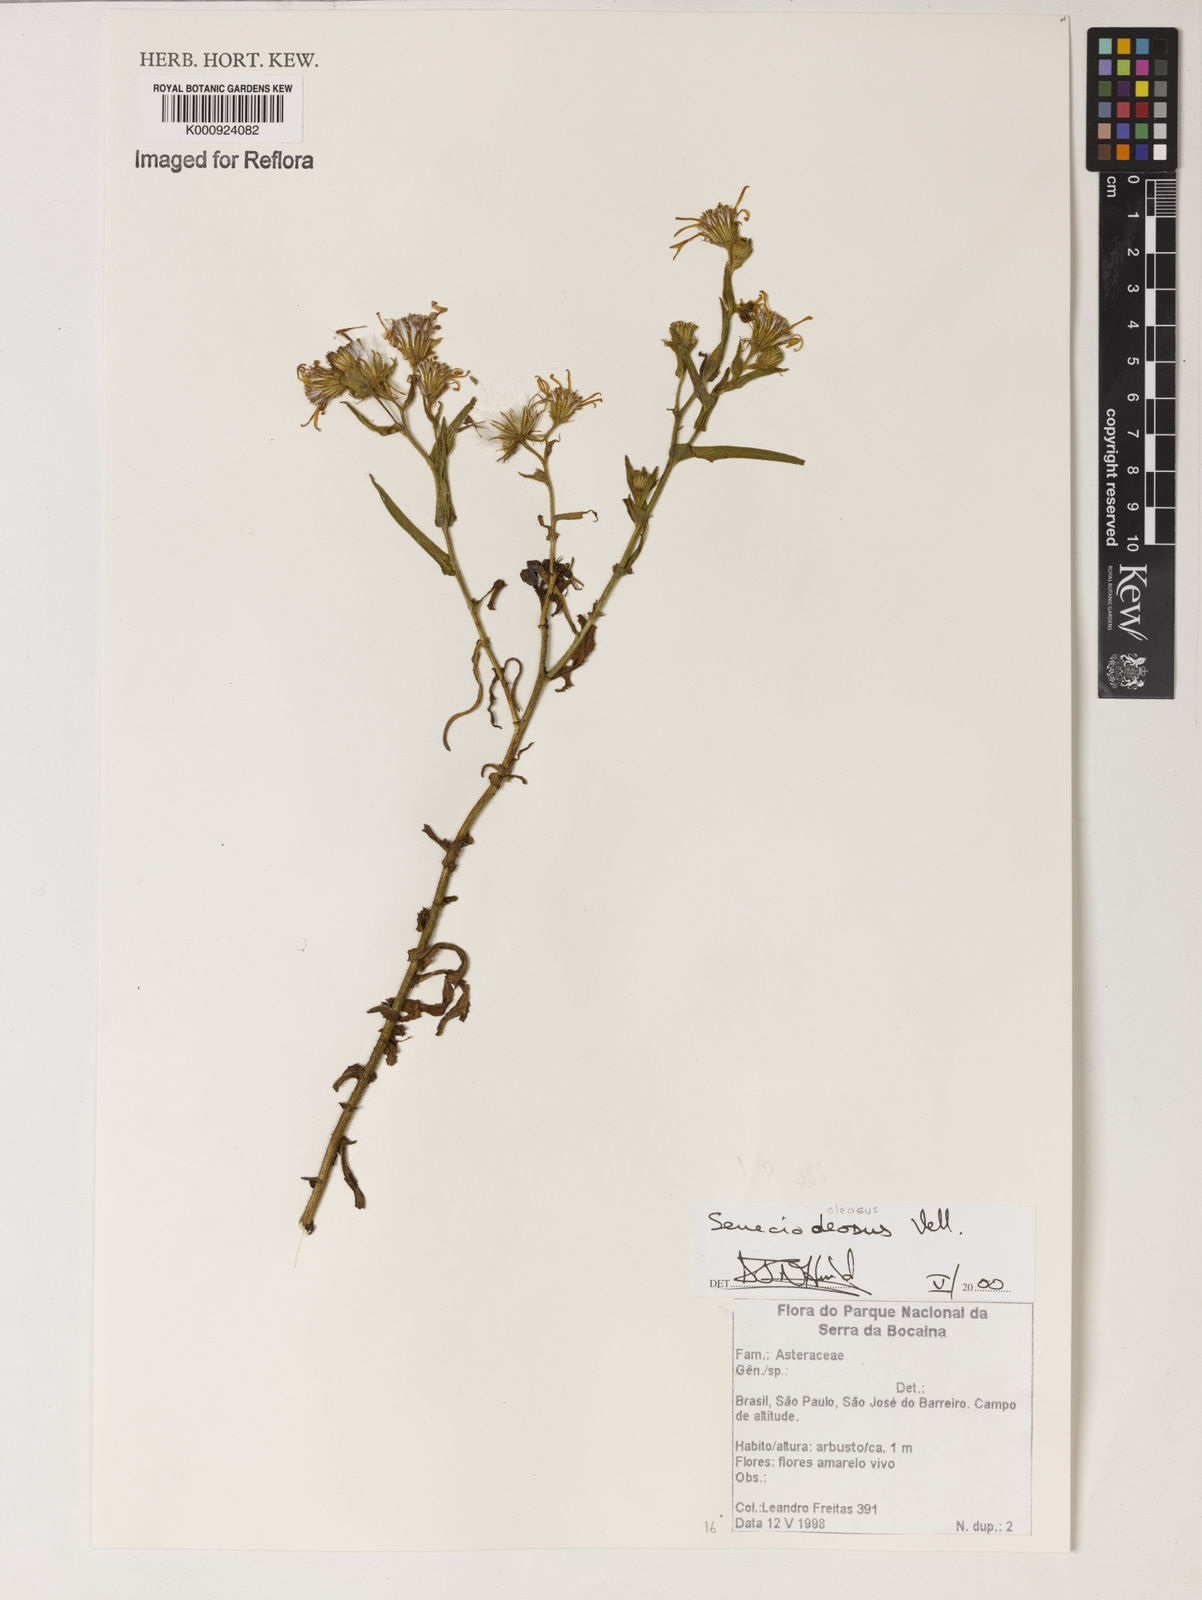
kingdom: Plantae
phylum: Tracheophyta
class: Magnoliopsida
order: Asterales
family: Asteraceae
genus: Senecio
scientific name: Senecio oleosus
